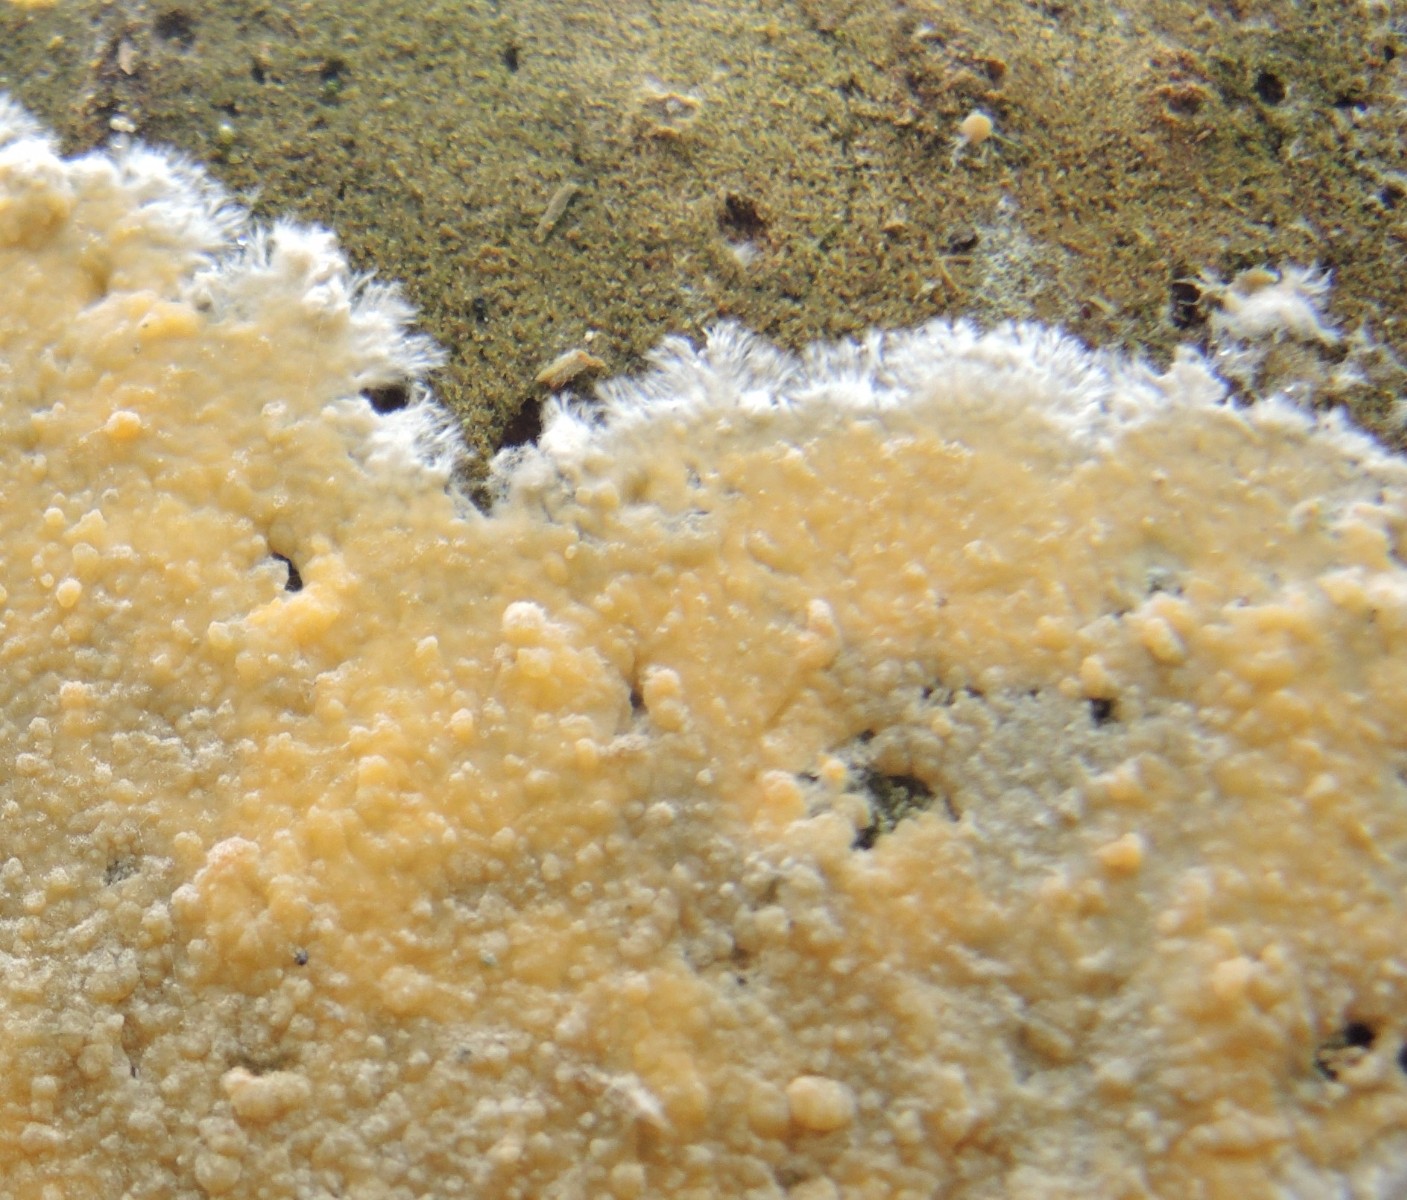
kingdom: Fungi
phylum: Basidiomycota
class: Agaricomycetes
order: Russulales
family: Peniophoraceae
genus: Gloiothele
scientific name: Gloiothele citrina
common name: citronskorpe
